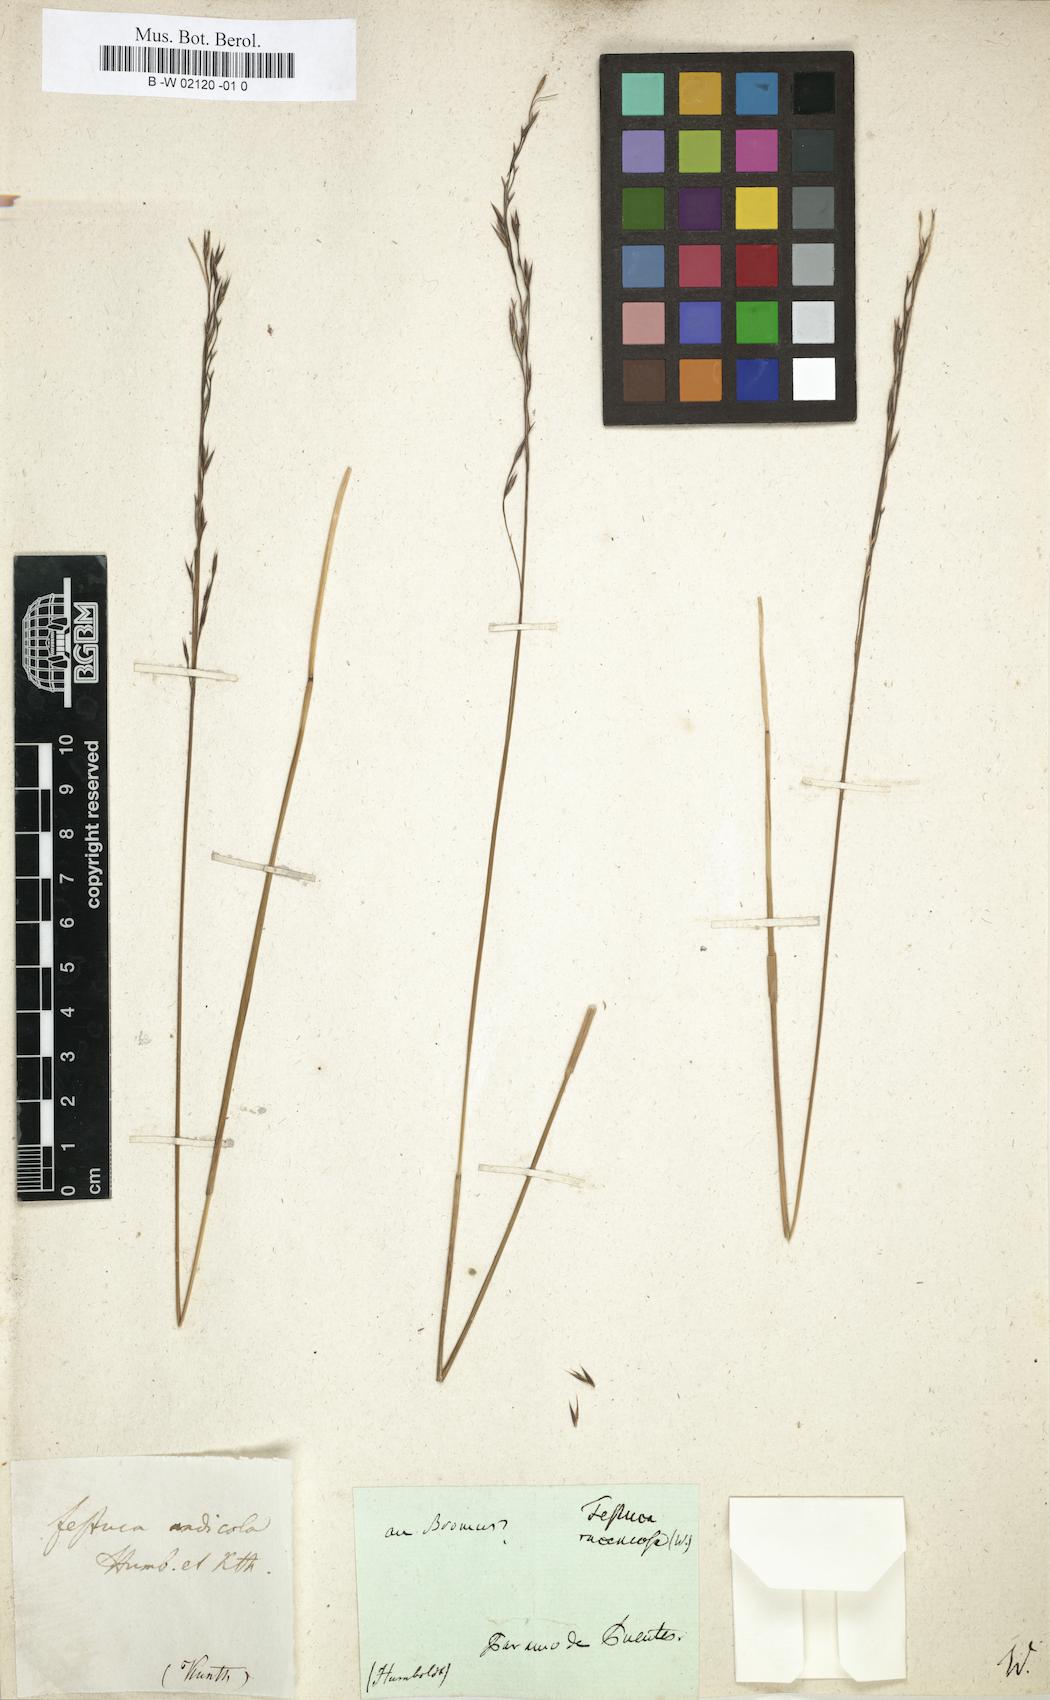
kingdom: Plantae
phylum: Tracheophyta
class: Liliopsida
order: Poales
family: Poaceae
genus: Festuca
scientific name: Festuca andicola
